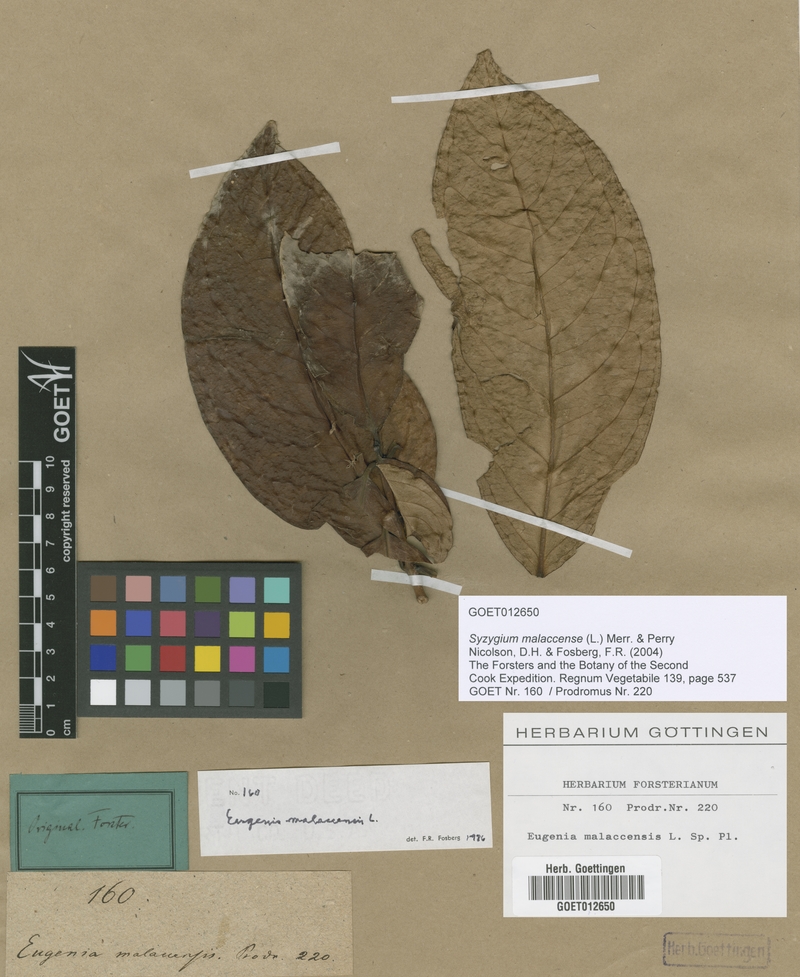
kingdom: Plantae
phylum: Tracheophyta
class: Magnoliopsida
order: Myrtales
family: Myrtaceae
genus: Syzygium
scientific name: Syzygium malaccense
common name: Malaysian apple
